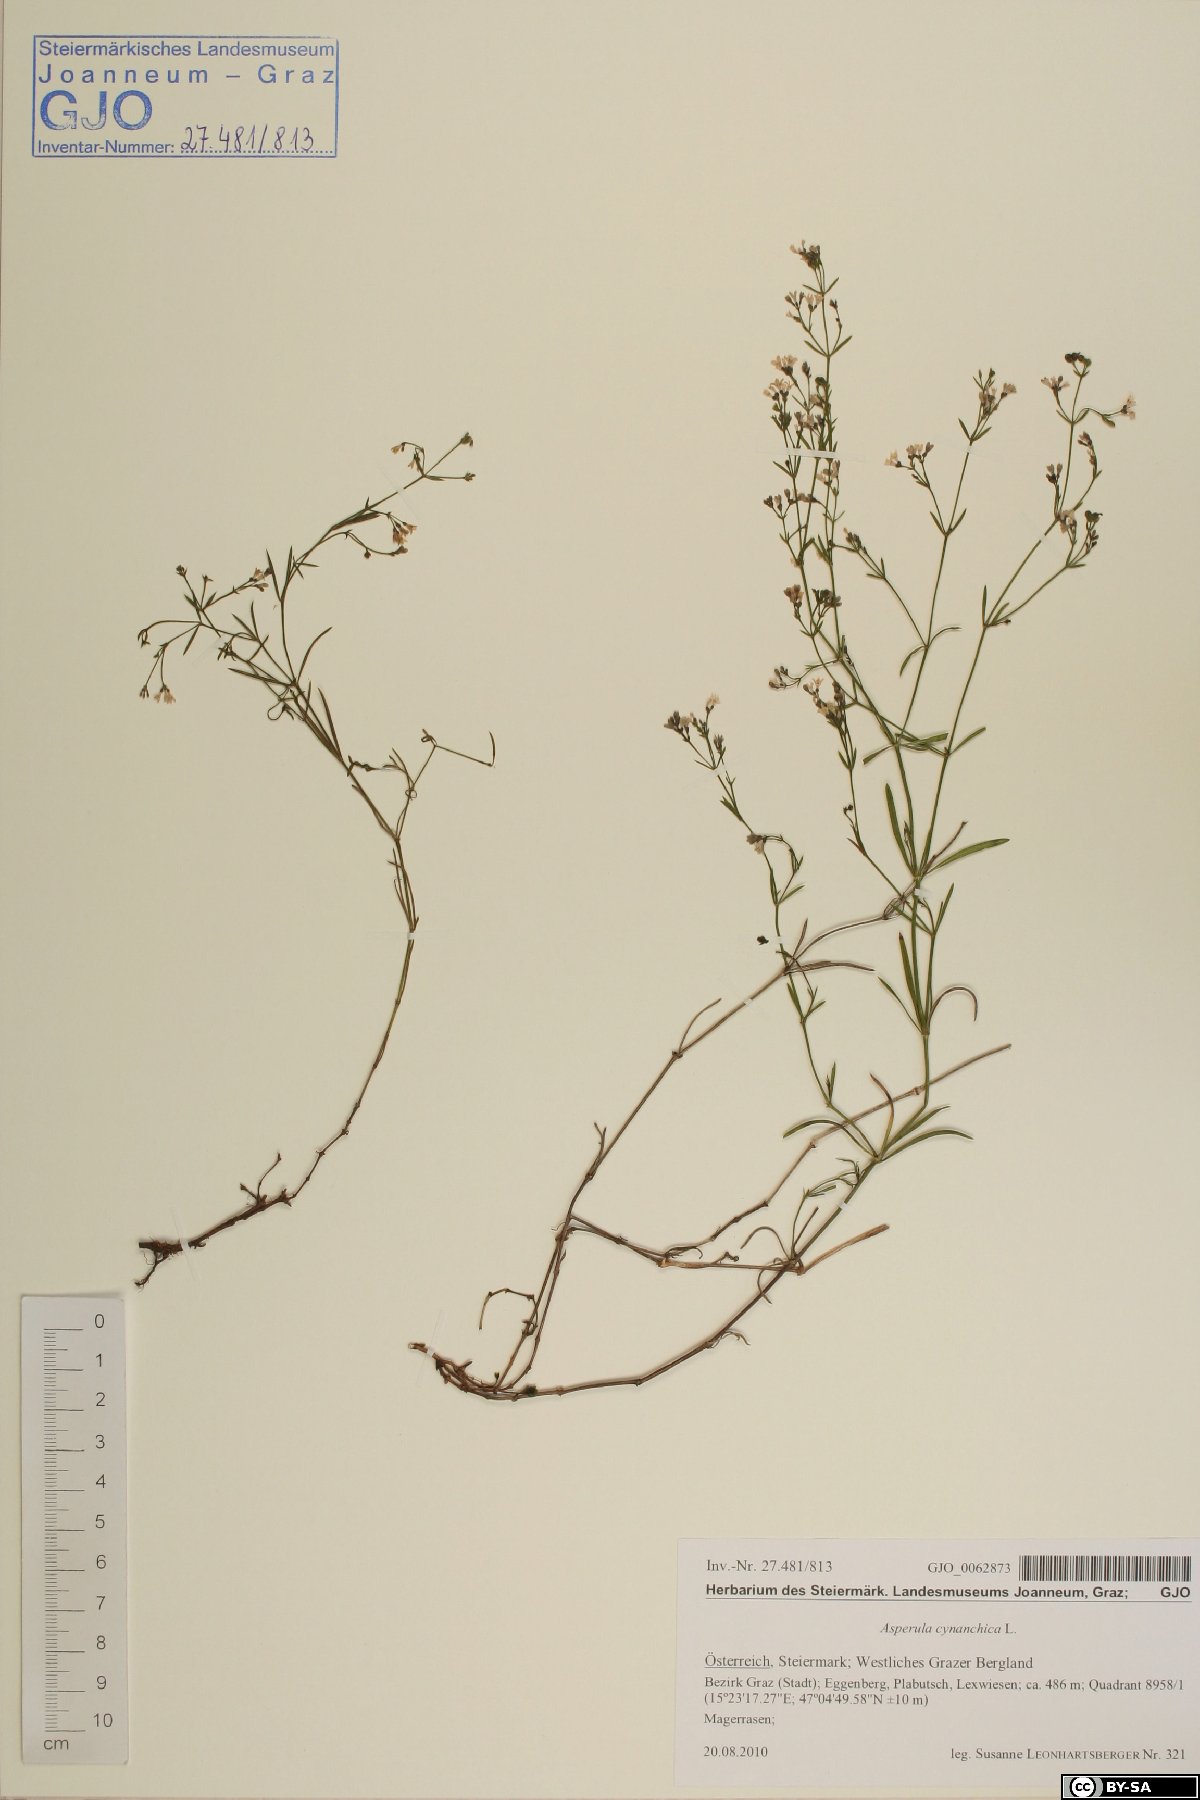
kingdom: Plantae
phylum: Tracheophyta
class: Magnoliopsida
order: Gentianales
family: Rubiaceae
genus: Cynanchica
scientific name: Cynanchica pyrenaica
